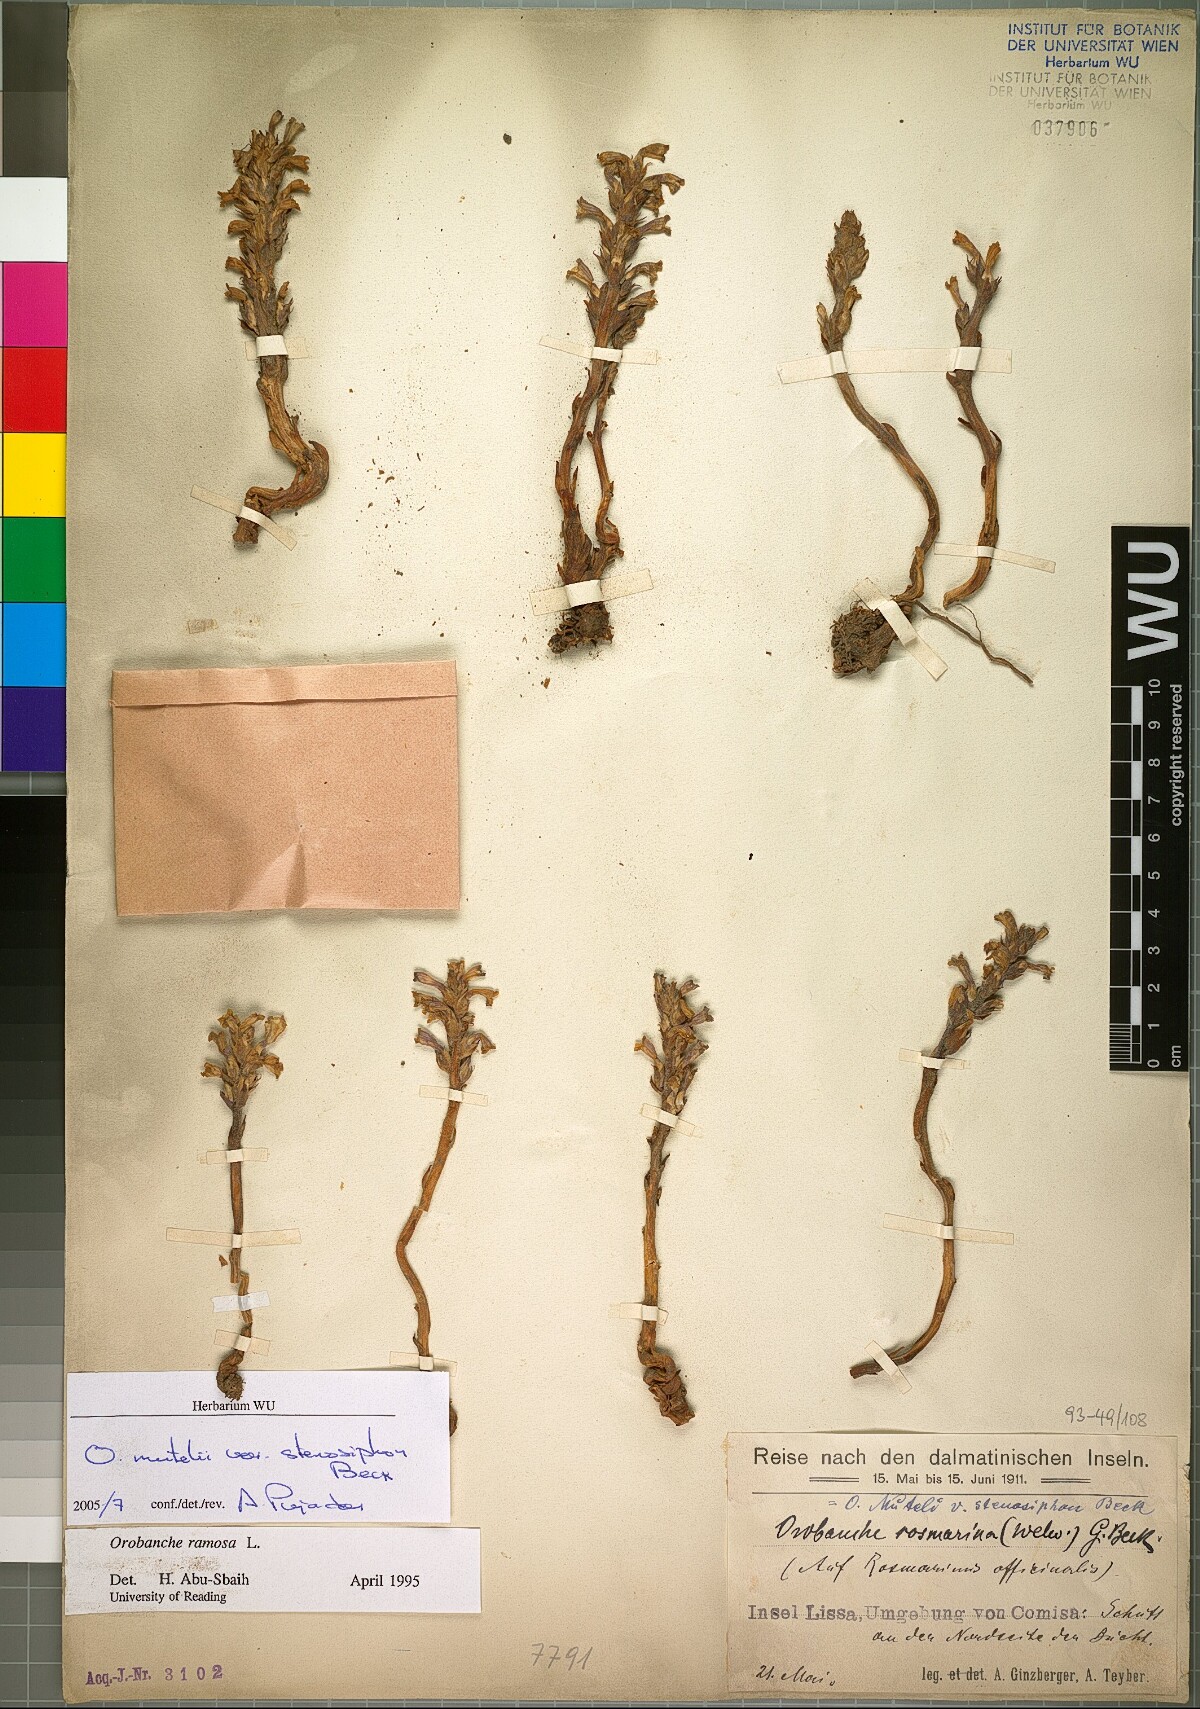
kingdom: Plantae
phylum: Tracheophyta
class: Magnoliopsida
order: Lamiales
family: Orobanchaceae
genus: Phelipanche
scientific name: Phelipanche pseudorosmarina
